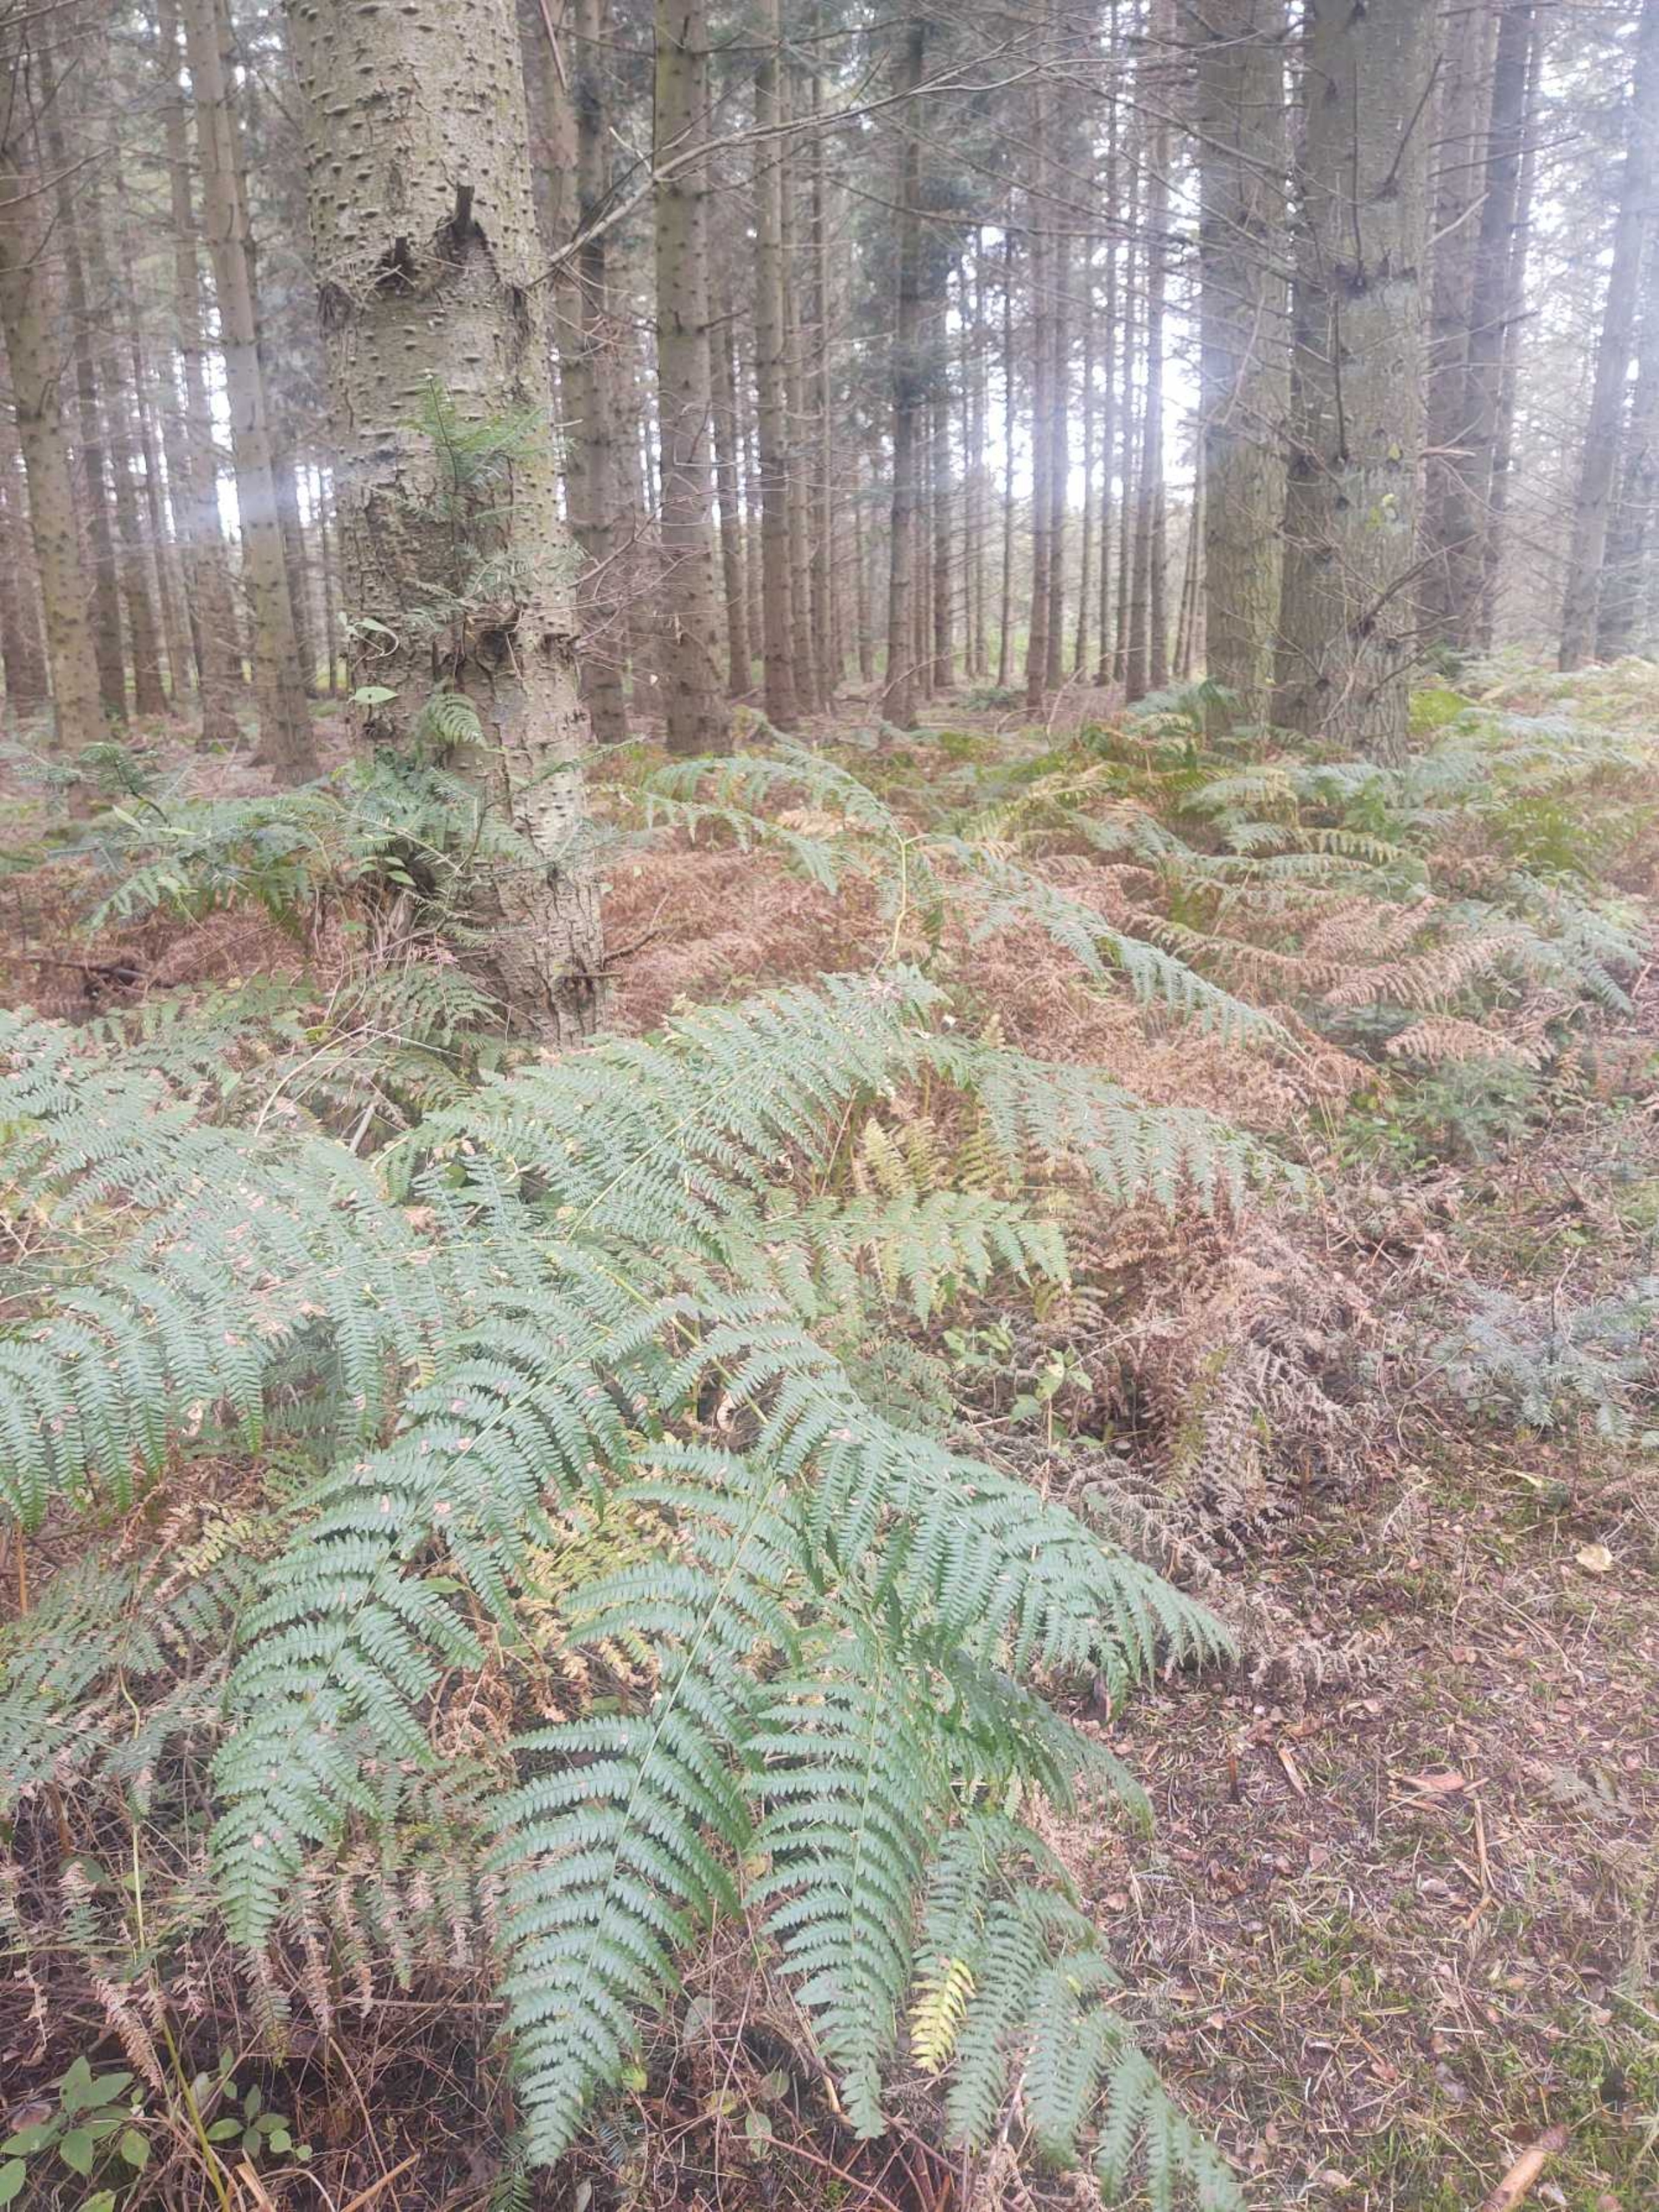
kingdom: Plantae
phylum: Tracheophyta
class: Polypodiopsida
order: Polypodiales
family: Dennstaedtiaceae
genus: Pteridium
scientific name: Pteridium aquilinum
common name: Ørnebregne
